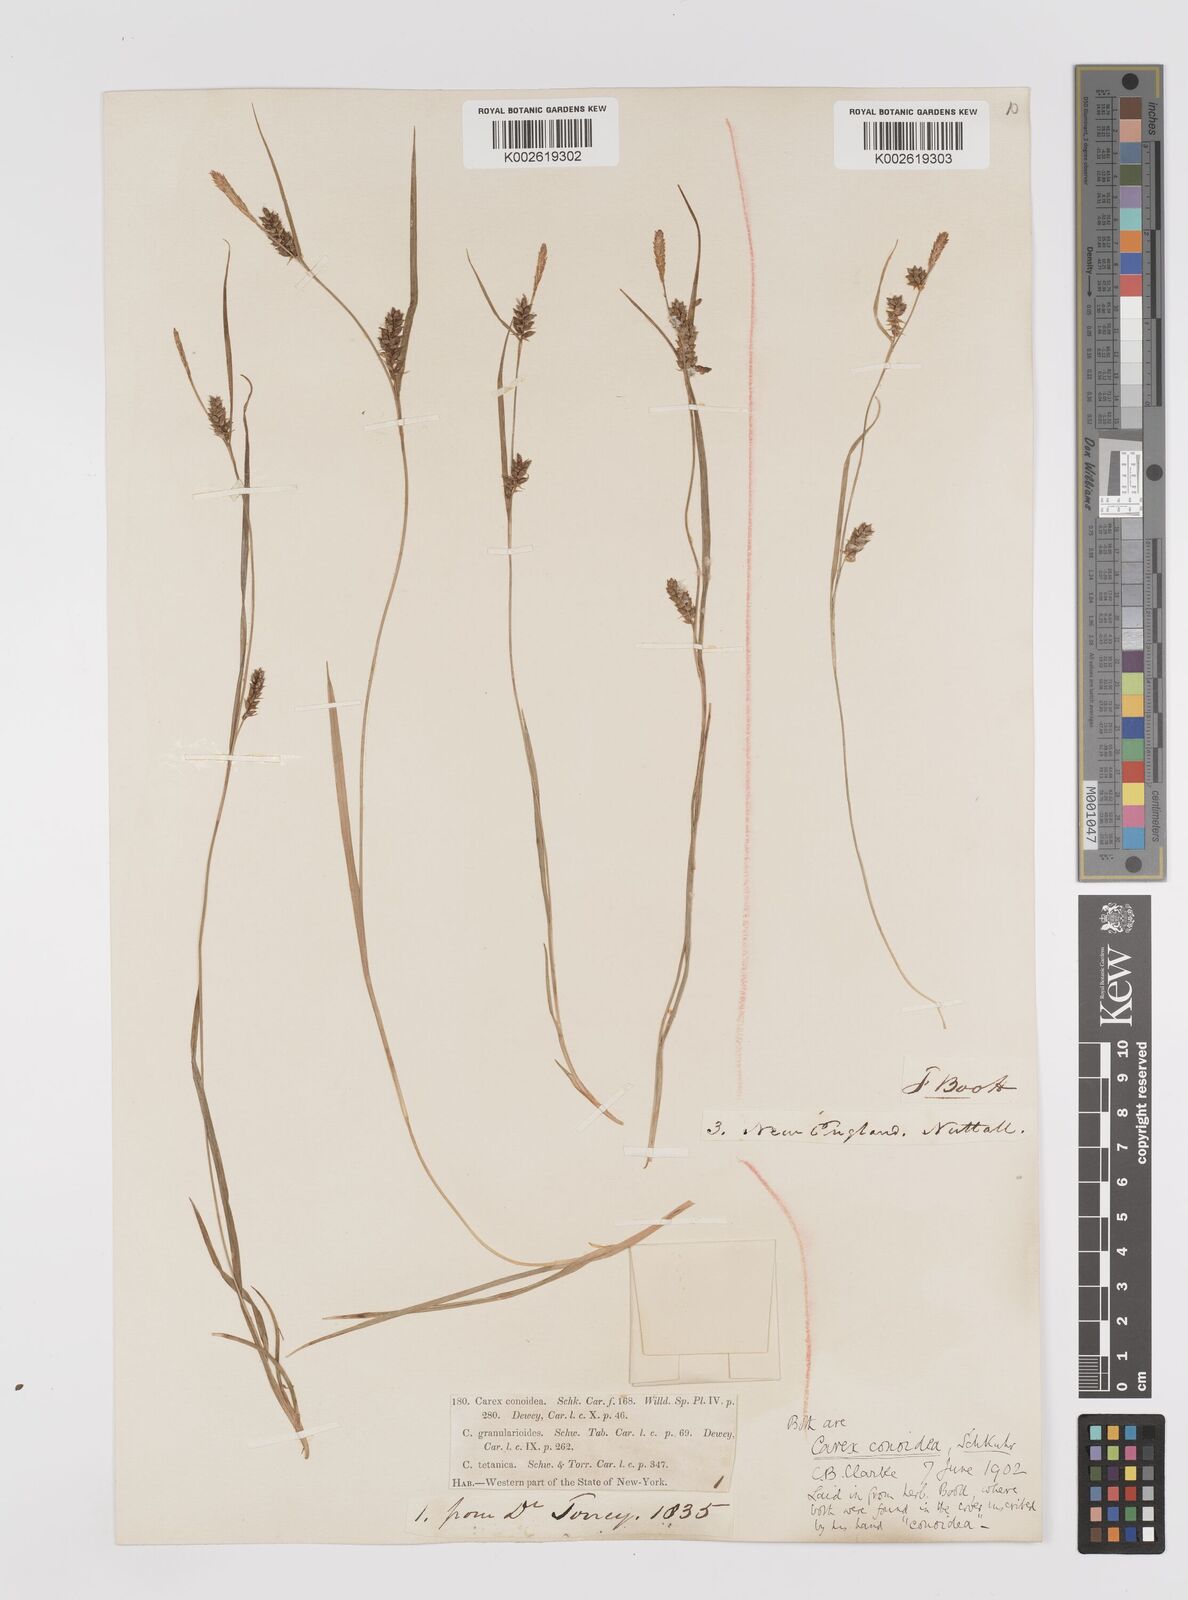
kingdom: Plantae
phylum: Tracheophyta
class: Liliopsida
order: Poales
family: Cyperaceae
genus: Carex
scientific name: Carex conoidea
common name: Cone shaped sedge
